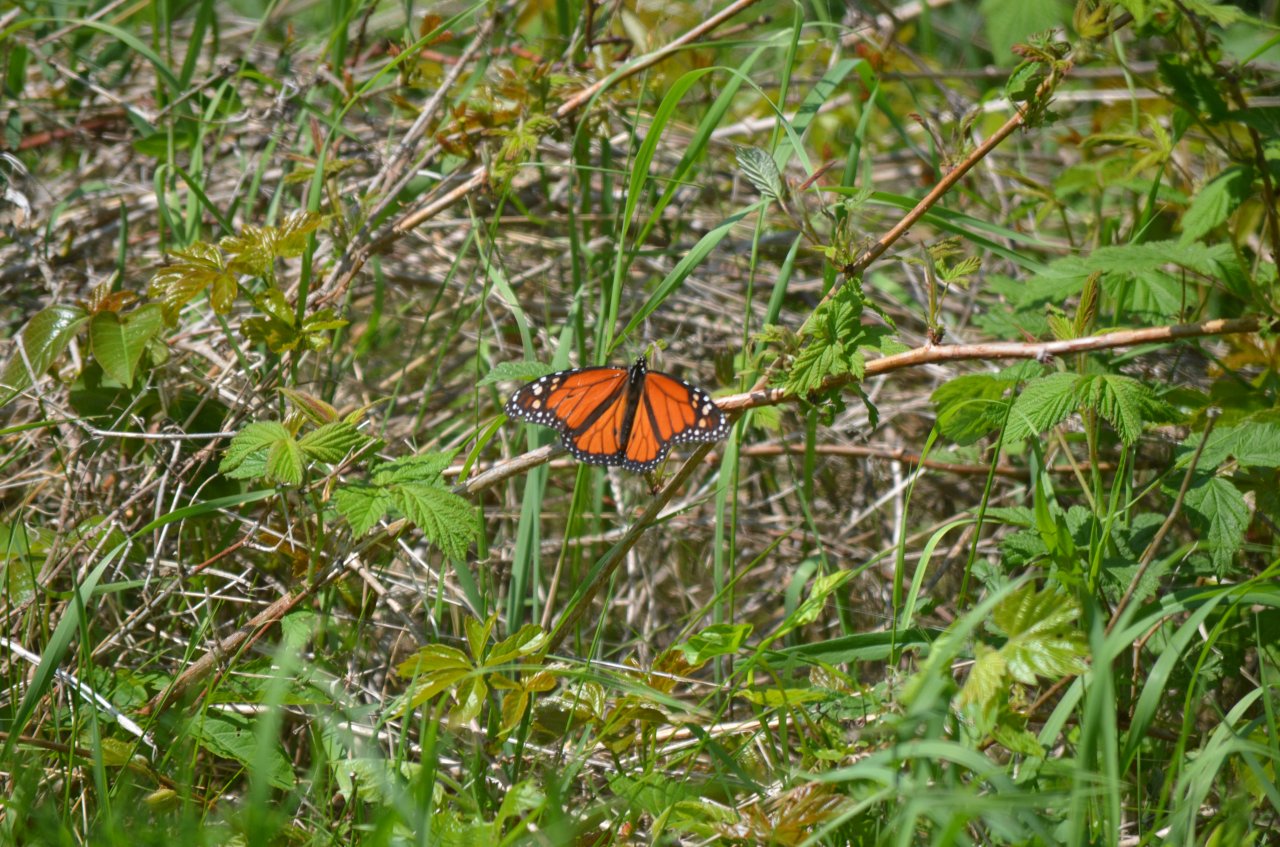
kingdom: Animalia
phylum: Arthropoda
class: Insecta
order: Lepidoptera
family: Nymphalidae
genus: Danaus
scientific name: Danaus plexippus
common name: Monarch
